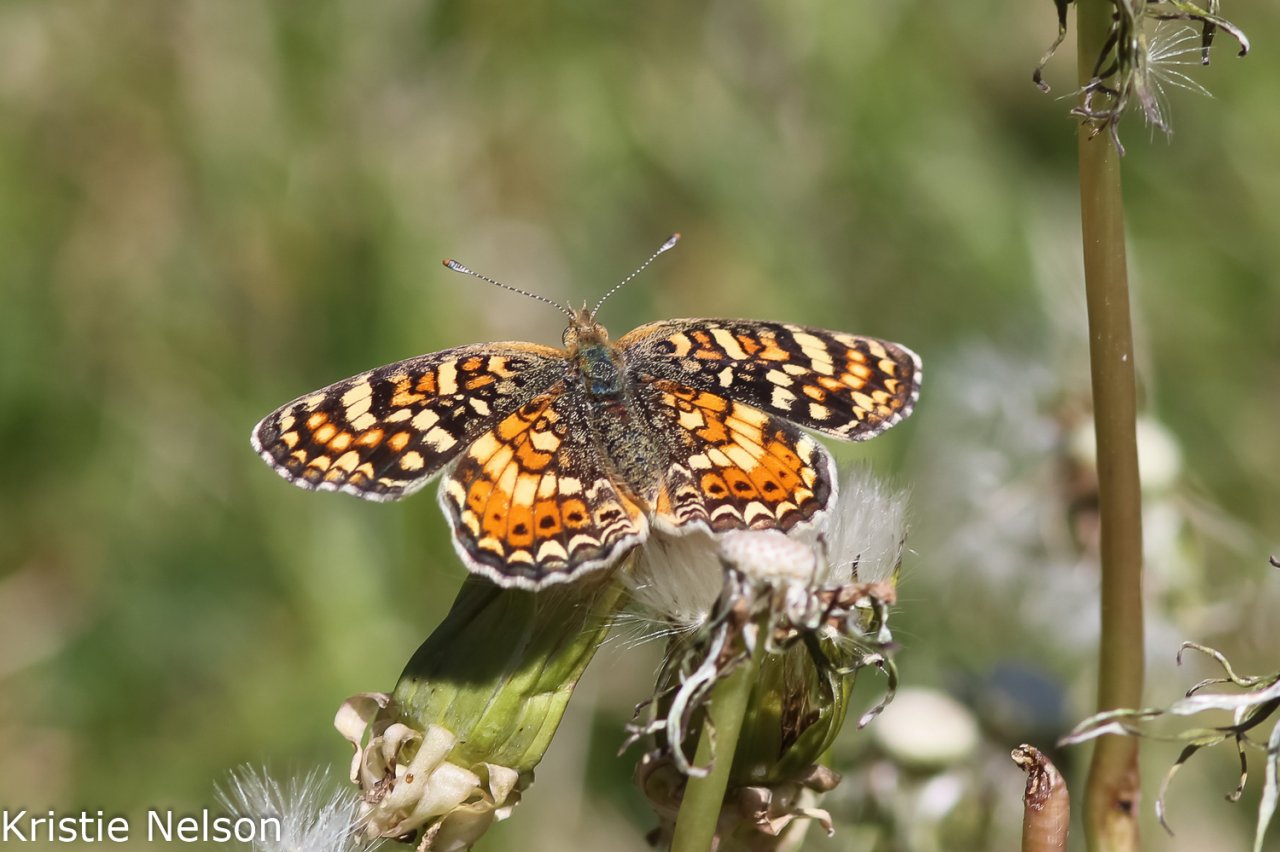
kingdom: Animalia
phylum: Arthropoda
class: Insecta
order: Lepidoptera
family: Nymphalidae
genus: Phyciodes
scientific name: Phyciodes tharos
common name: Field Crescent
